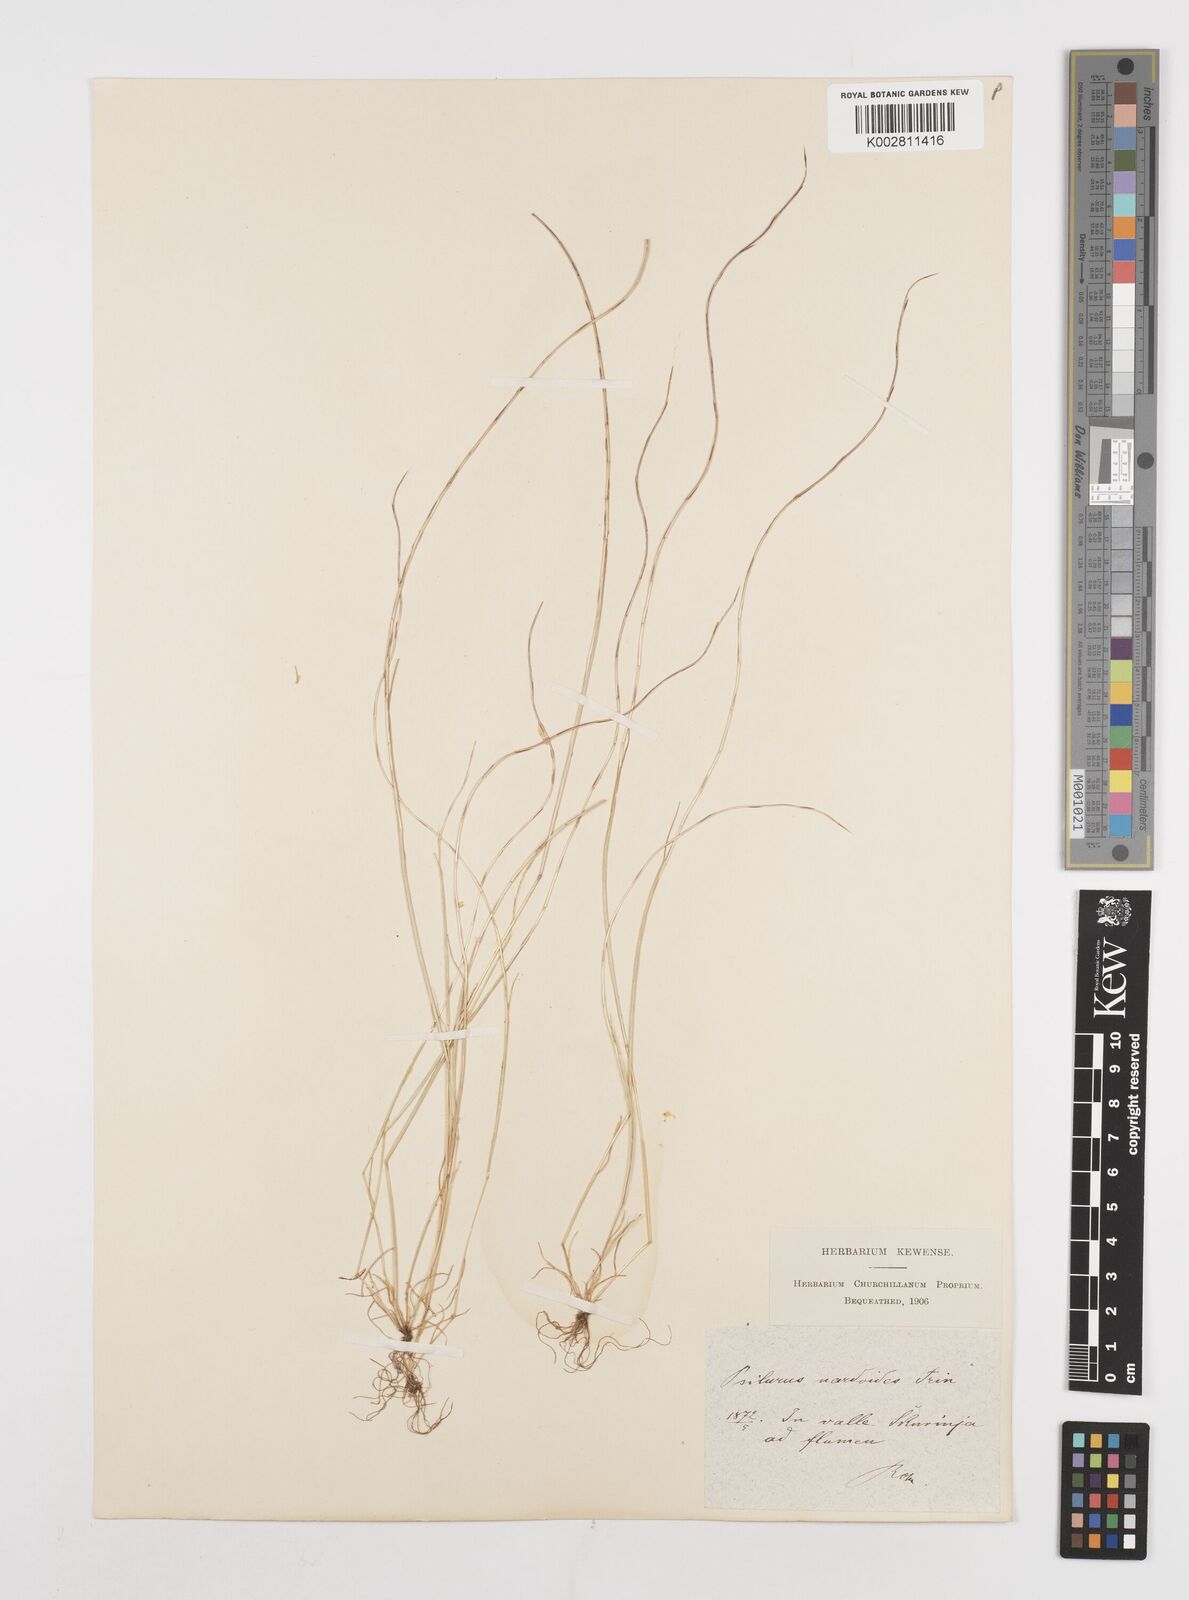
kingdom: Plantae
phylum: Tracheophyta
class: Liliopsida
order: Poales
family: Poaceae
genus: Festuca
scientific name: Festuca incurva
